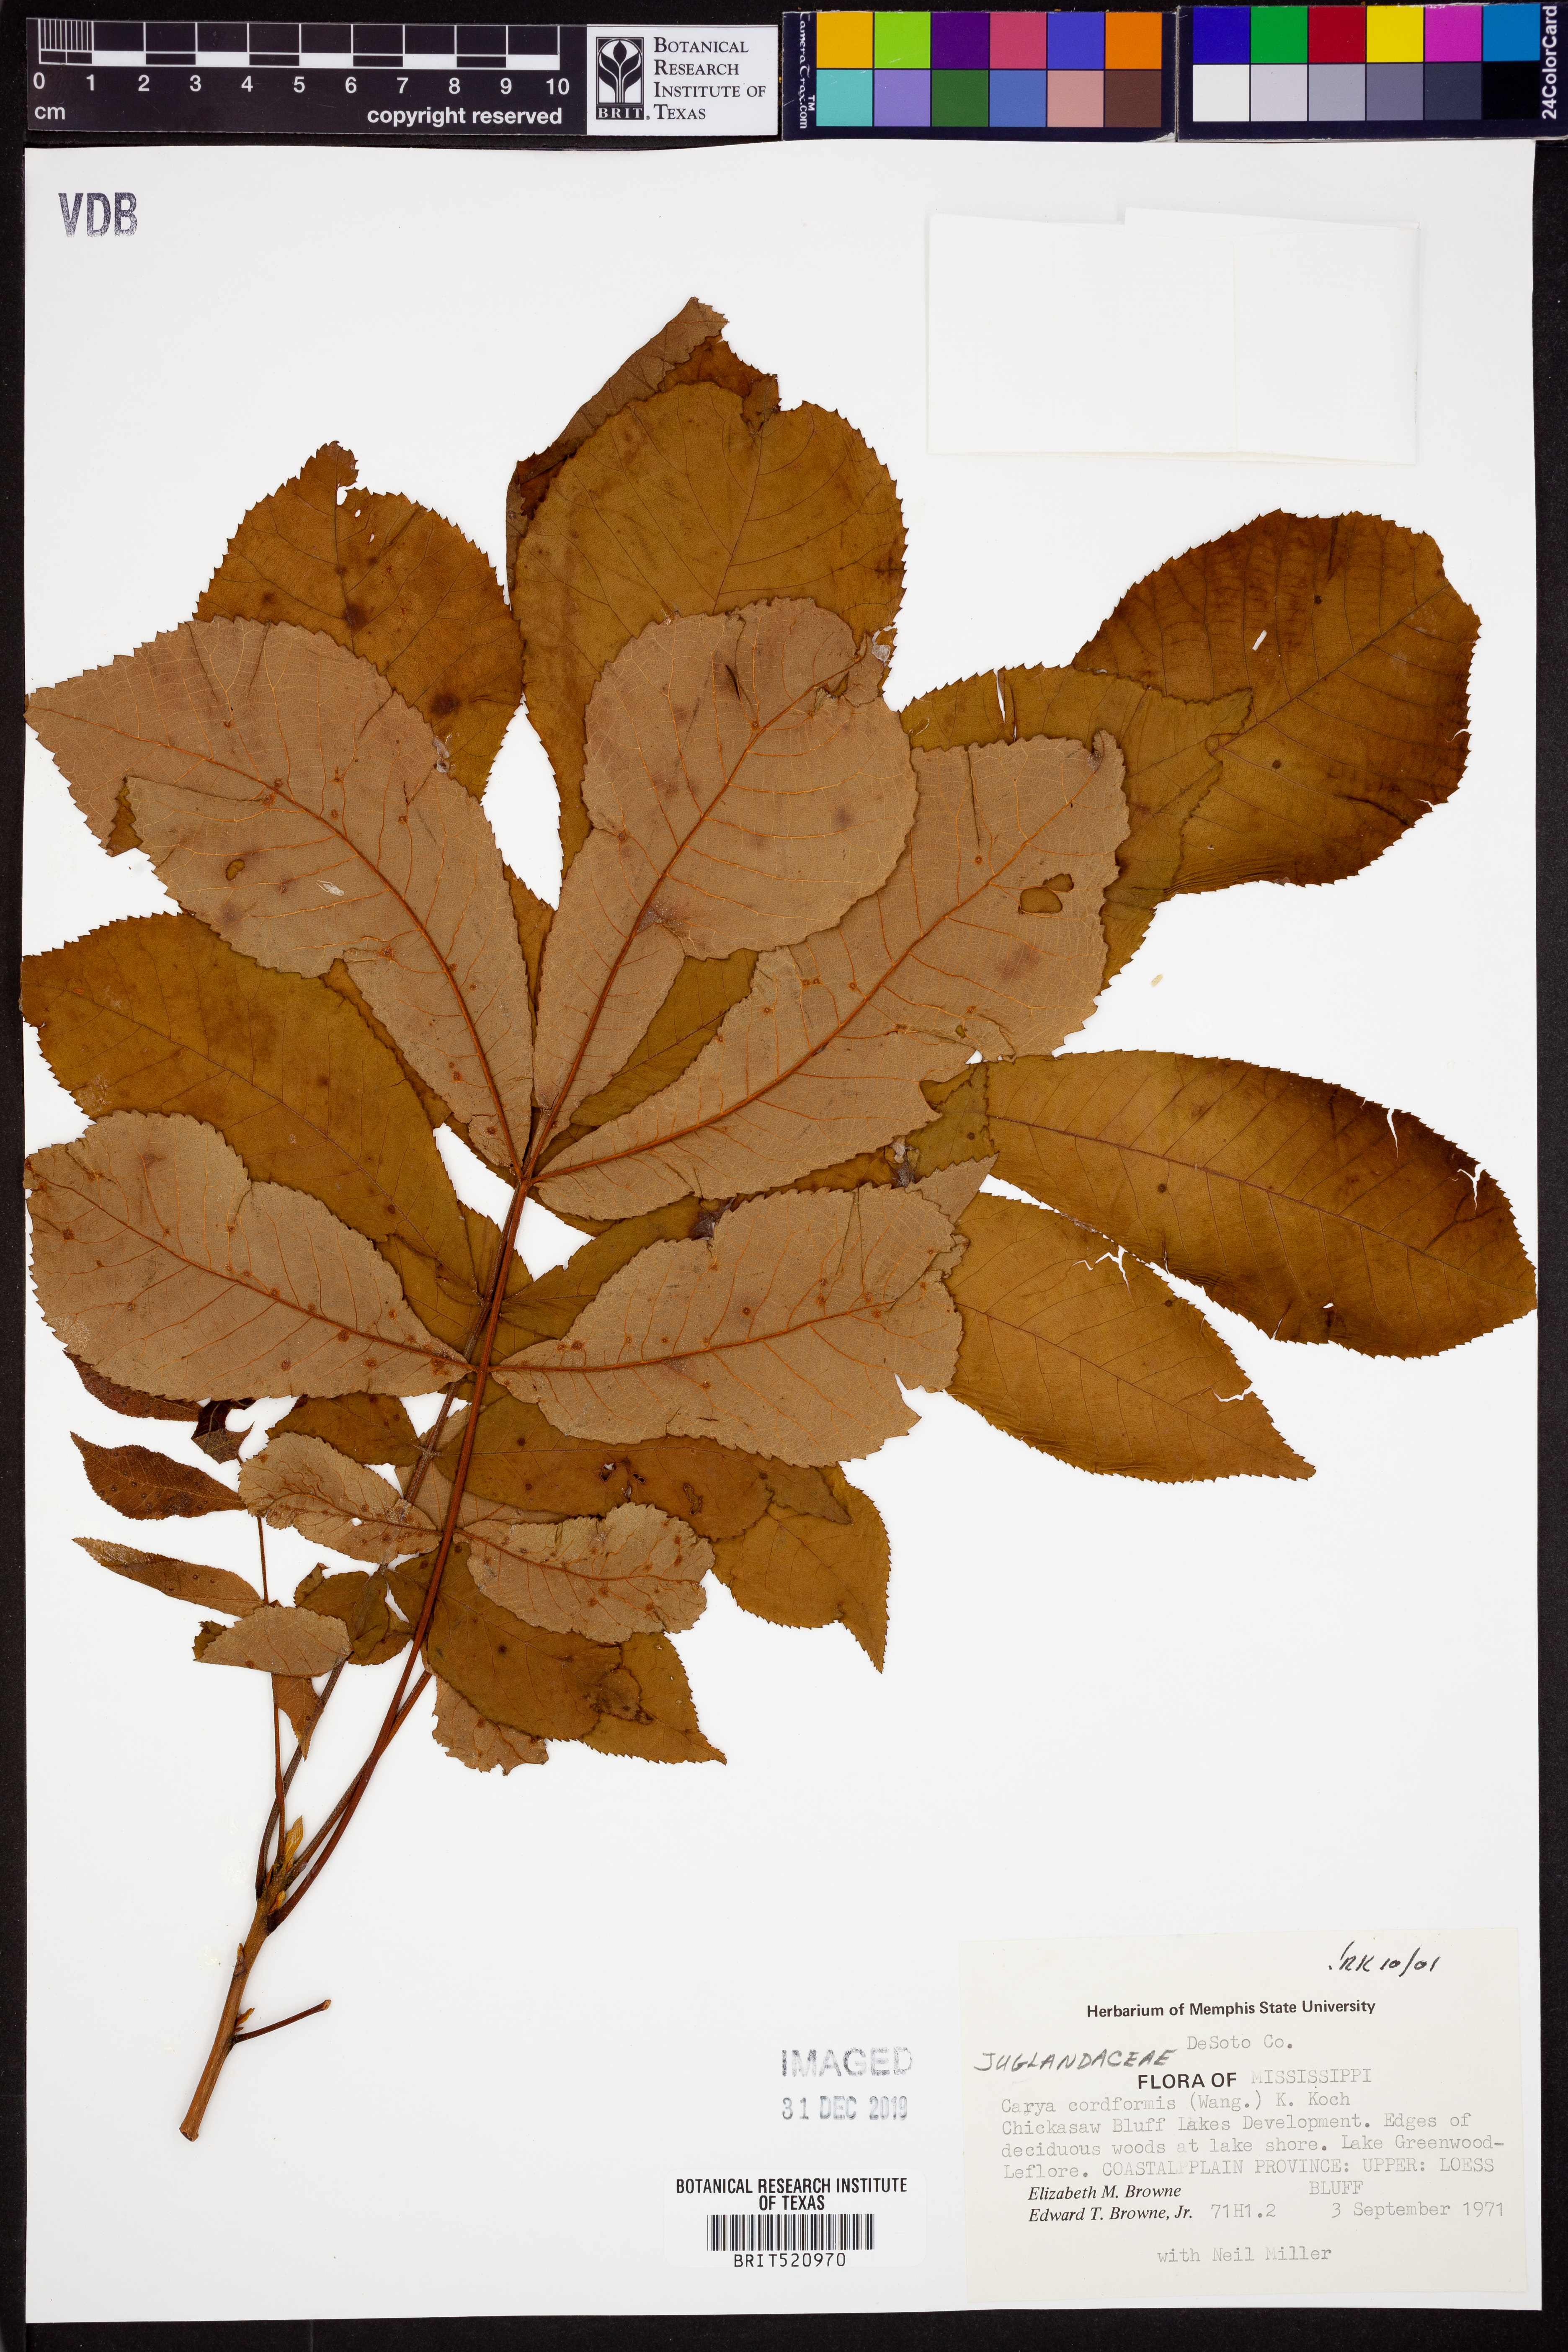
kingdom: Plantae
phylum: Tracheophyta
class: Magnoliopsida
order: Fagales
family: Juglandaceae
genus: Carya
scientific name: Carya cordiformis
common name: Bitternut hickory
